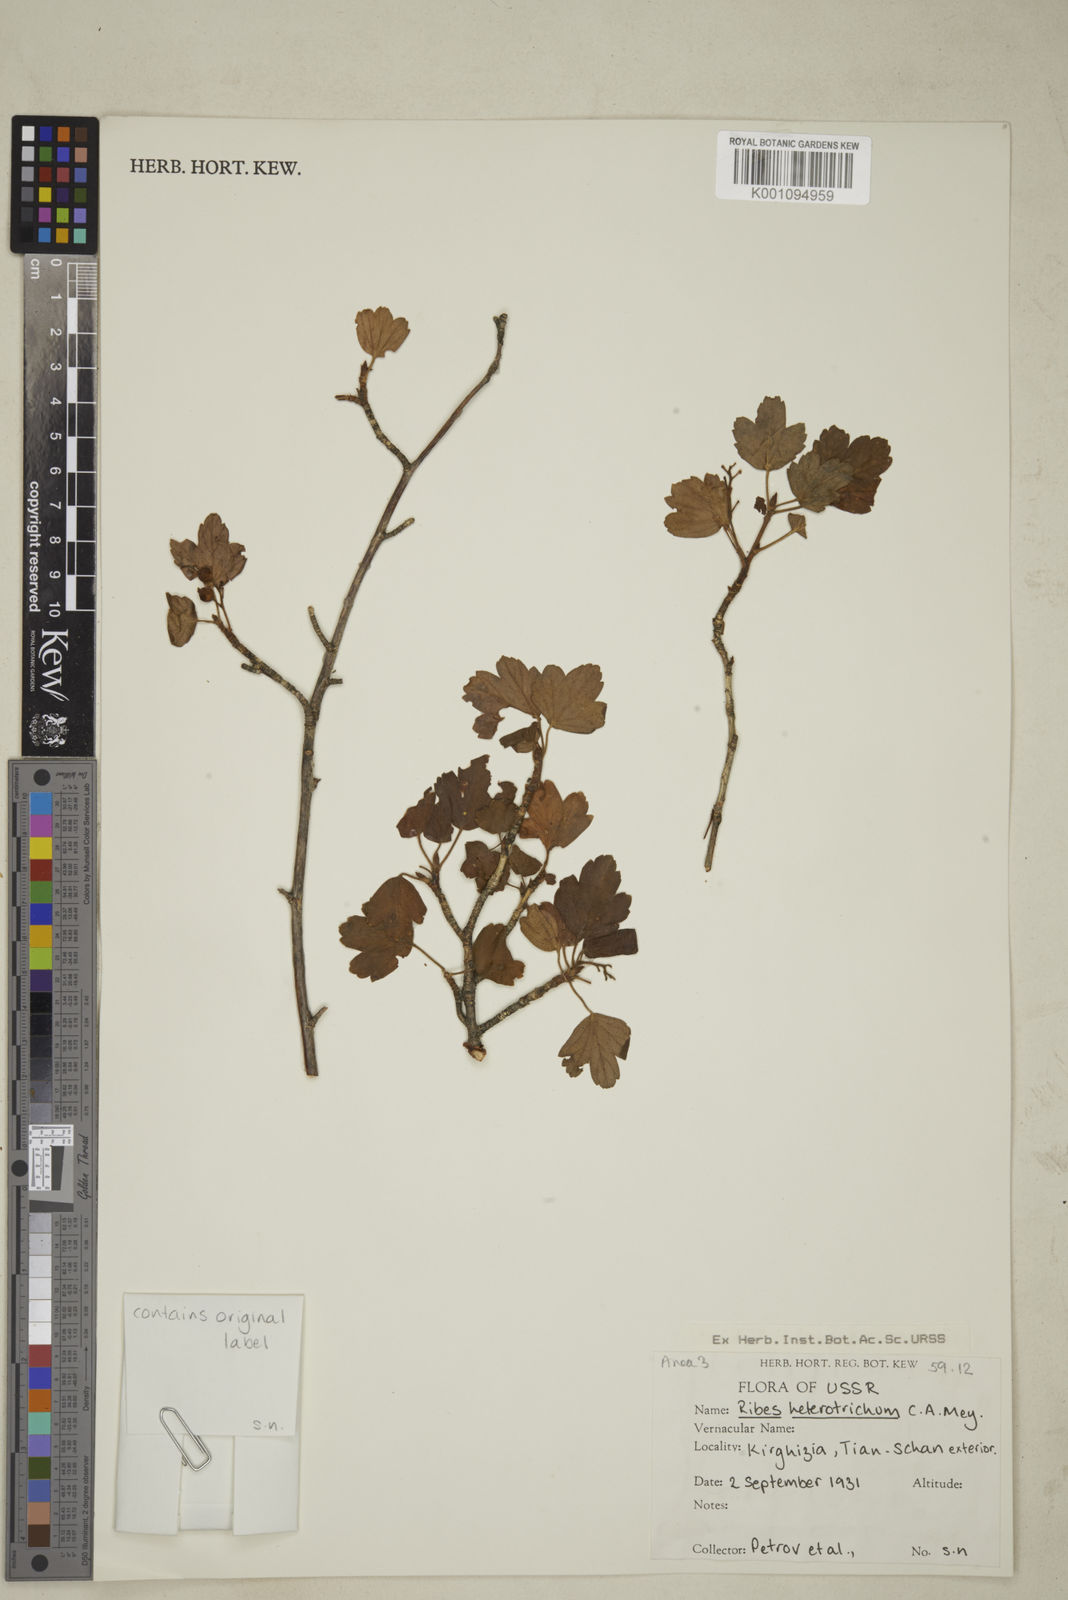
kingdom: Plantae
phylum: Tracheophyta
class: Magnoliopsida
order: Saxifragales
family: Grossulariaceae
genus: Ribes
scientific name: Ribes heterotrichum
